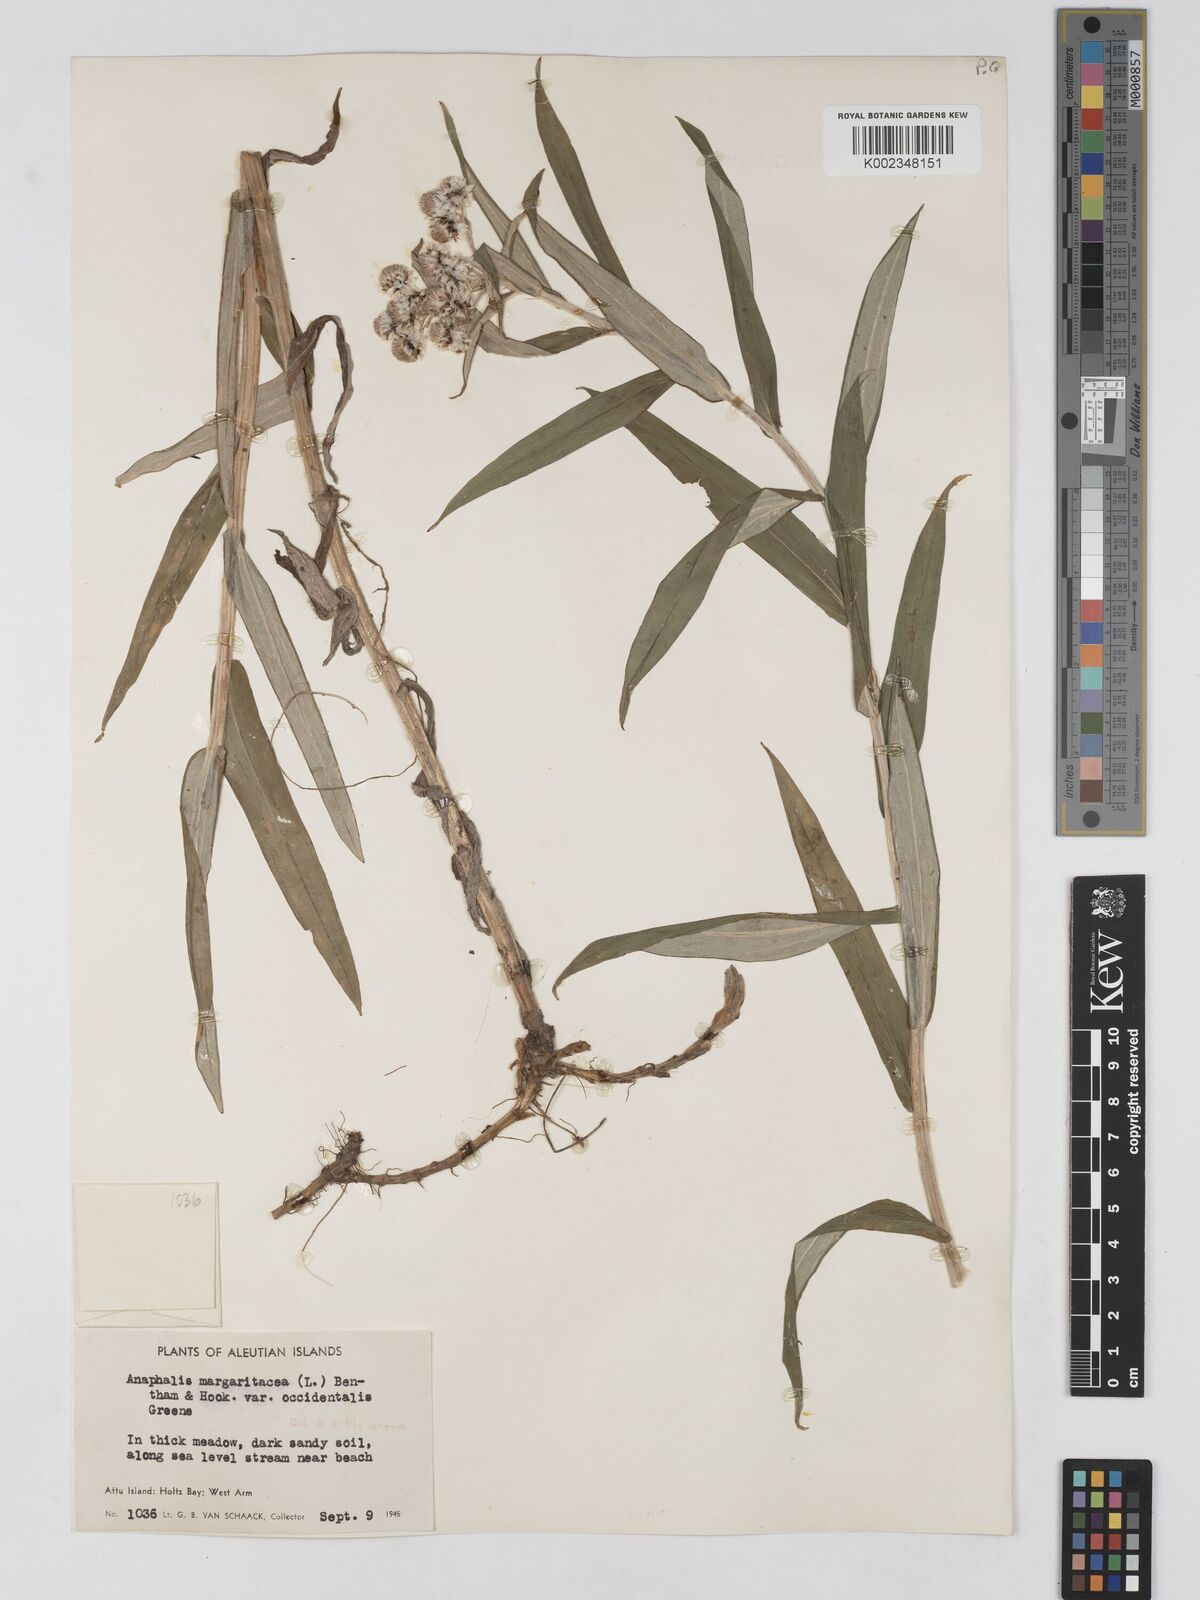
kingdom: Plantae
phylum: Tracheophyta
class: Magnoliopsida
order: Asterales
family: Asteraceae
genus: Anaphalis
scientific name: Anaphalis margaritacea
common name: Pearly everlasting
